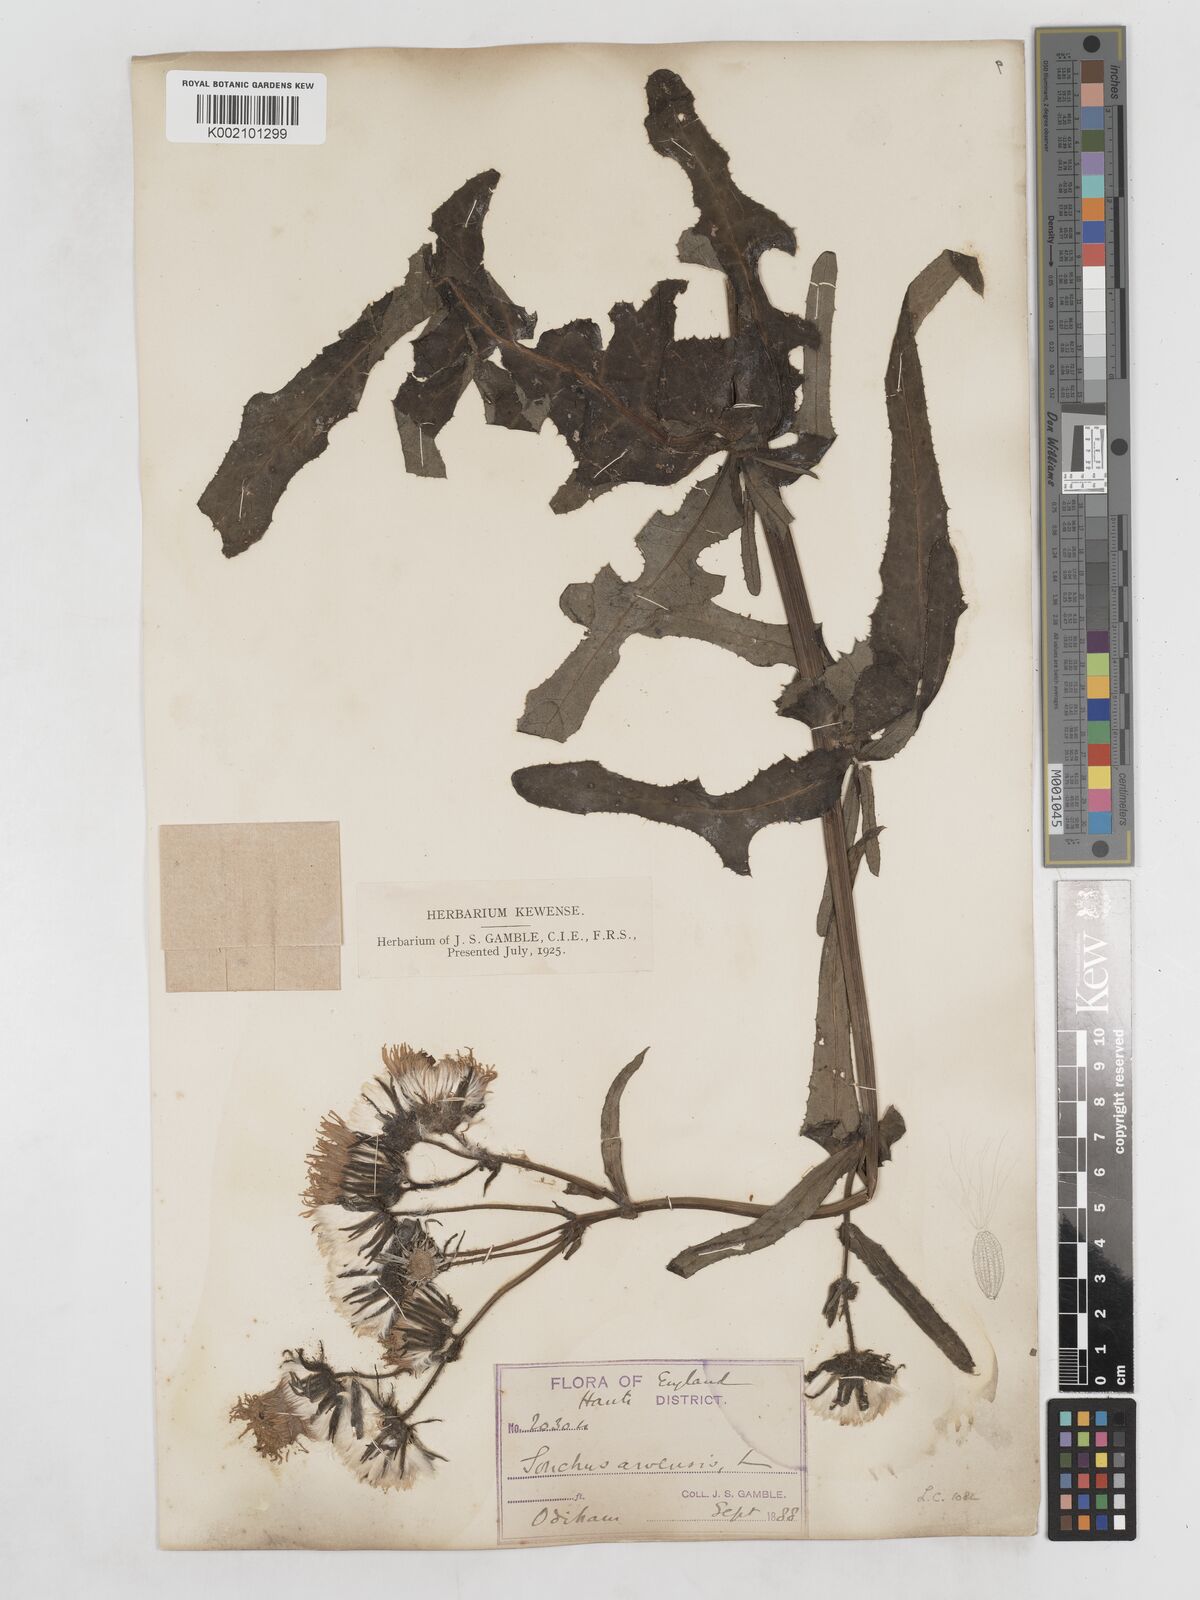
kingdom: Plantae
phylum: Tracheophyta
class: Magnoliopsida
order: Asterales
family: Asteraceae
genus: Sonchus
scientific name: Sonchus arvensis
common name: Perennial sow-thistle
